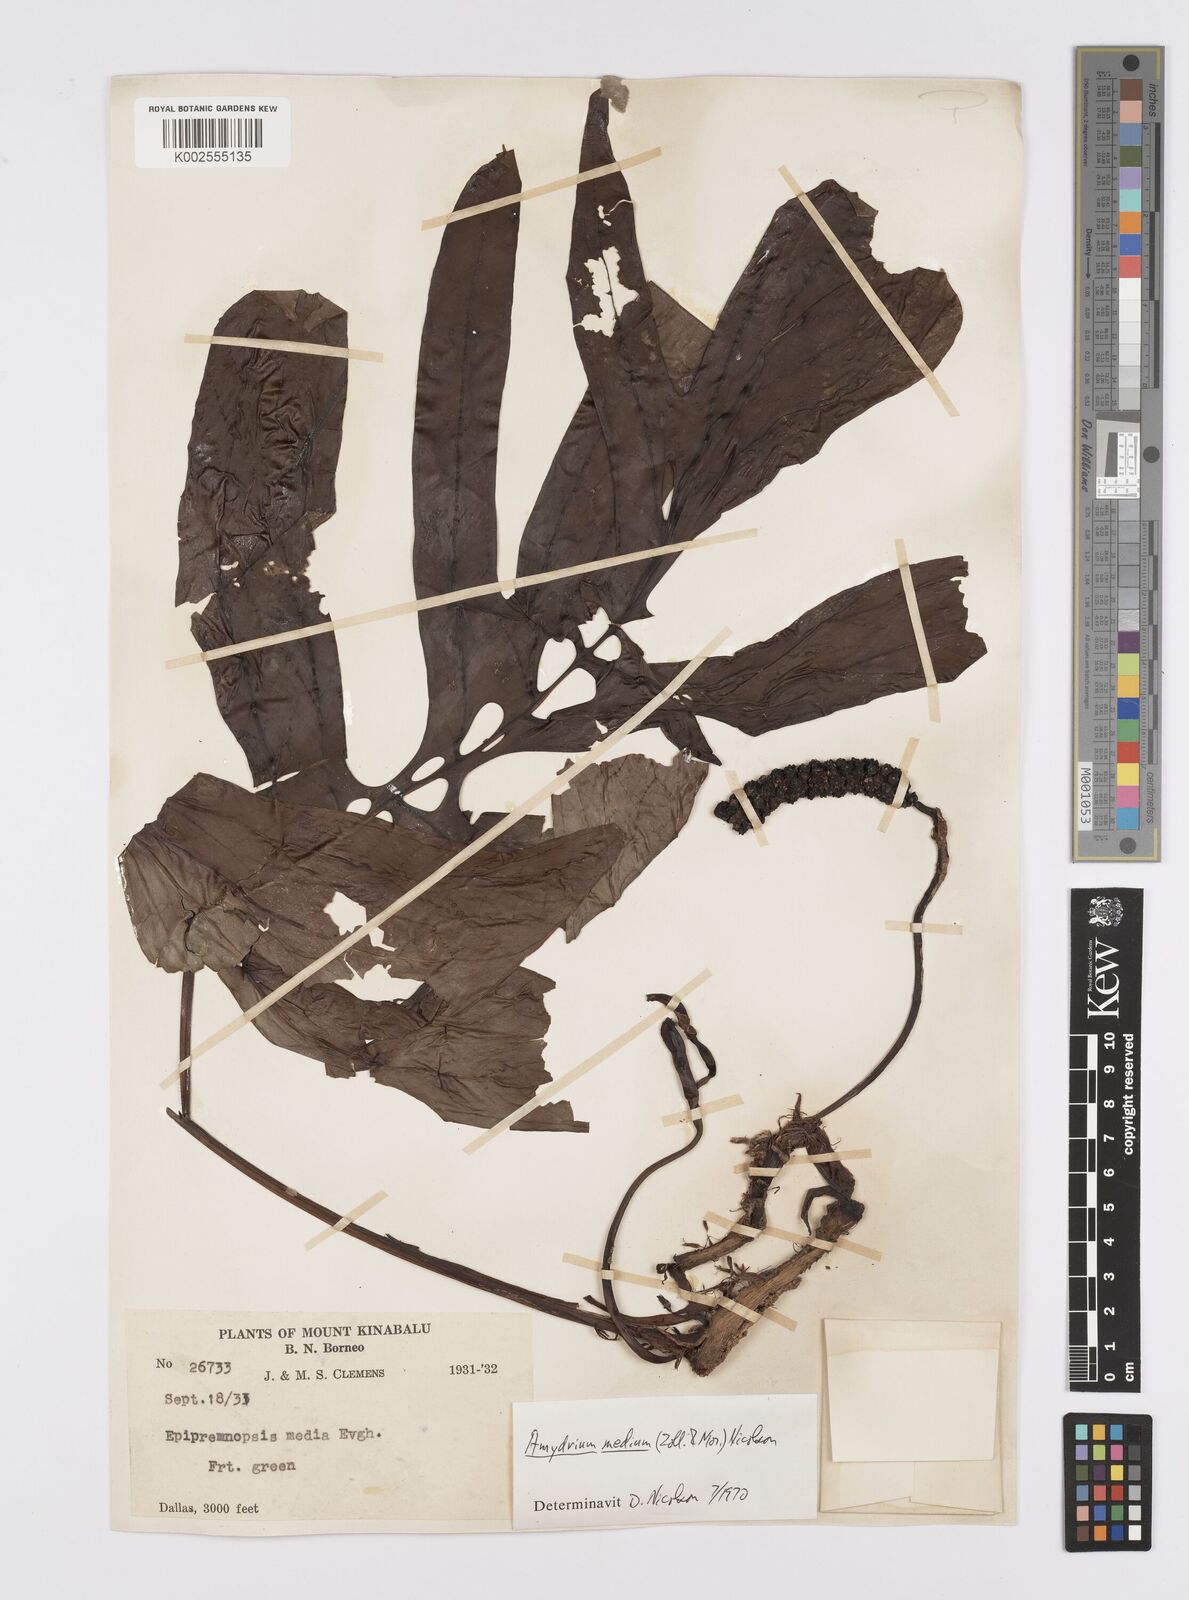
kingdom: Plantae
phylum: Tracheophyta
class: Liliopsida
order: Alismatales
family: Araceae
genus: Amydrium
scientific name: Amydrium medium
